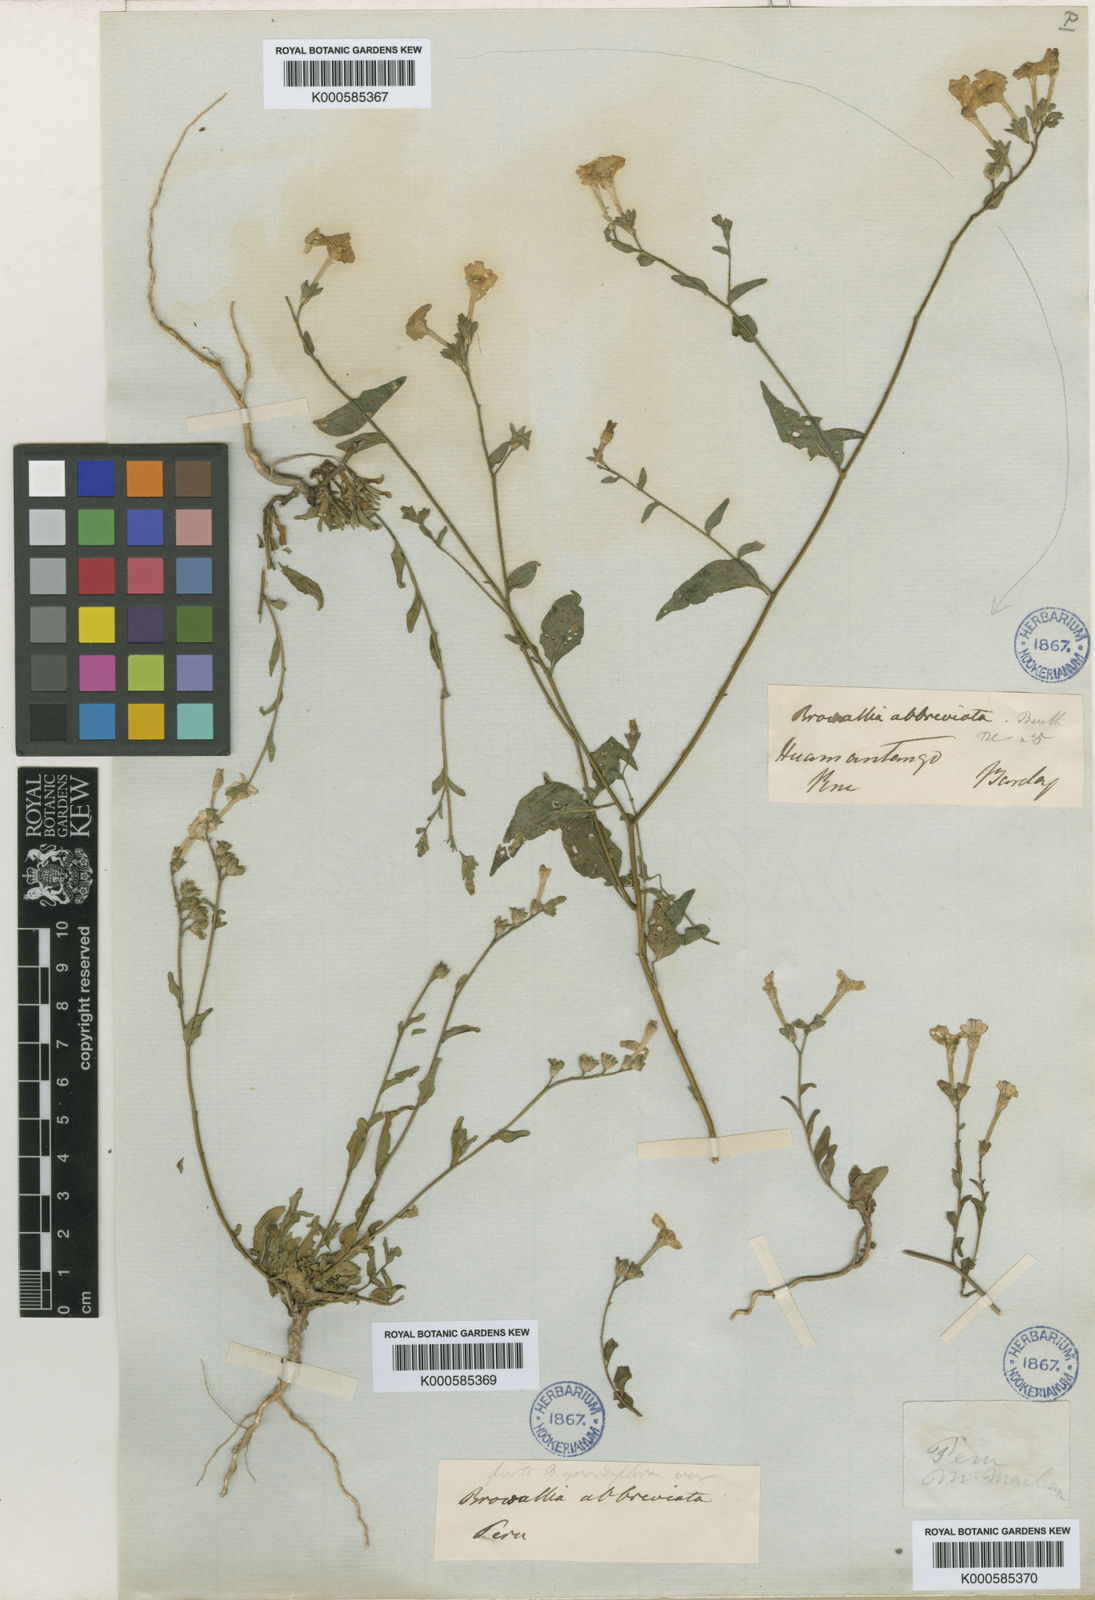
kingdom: Plantae
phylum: Tracheophyta
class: Magnoliopsida
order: Solanales
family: Solanaceae
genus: Browallia
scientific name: Browallia abbreviata
